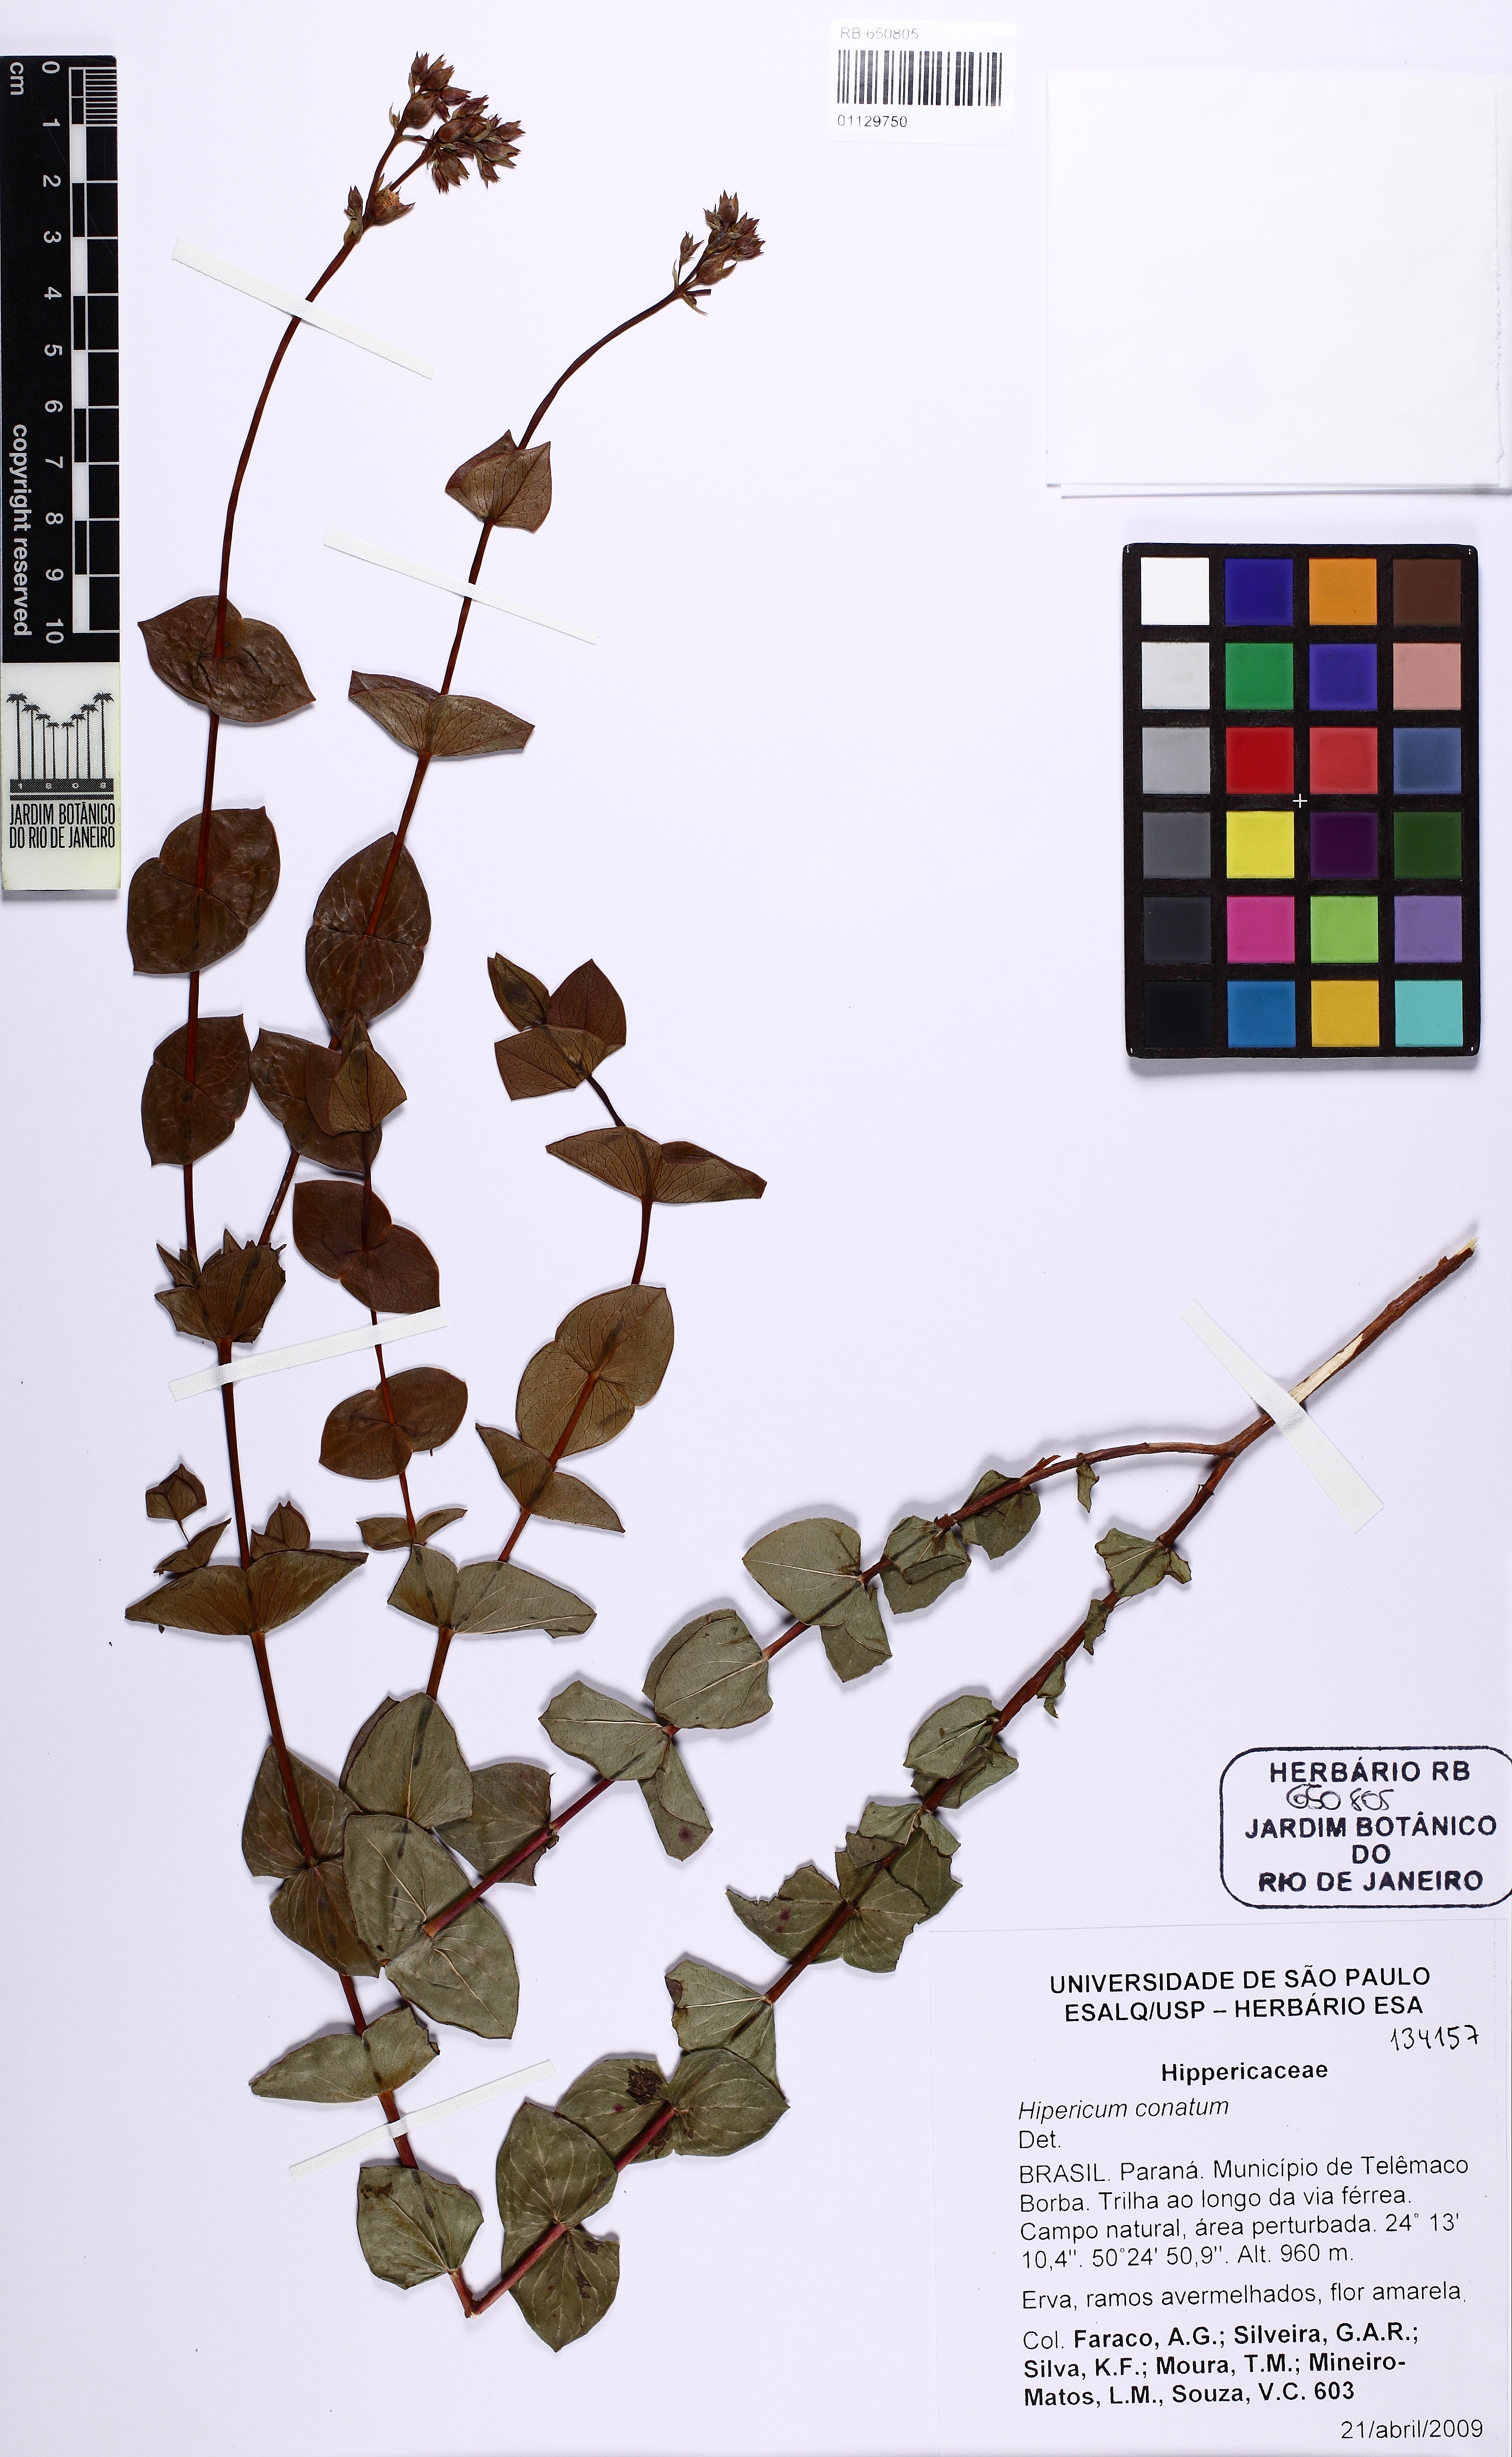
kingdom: Plantae
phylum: Tracheophyta
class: Magnoliopsida
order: Malpighiales
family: Hypericaceae
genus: Hypericum
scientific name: Hypericum connatum
